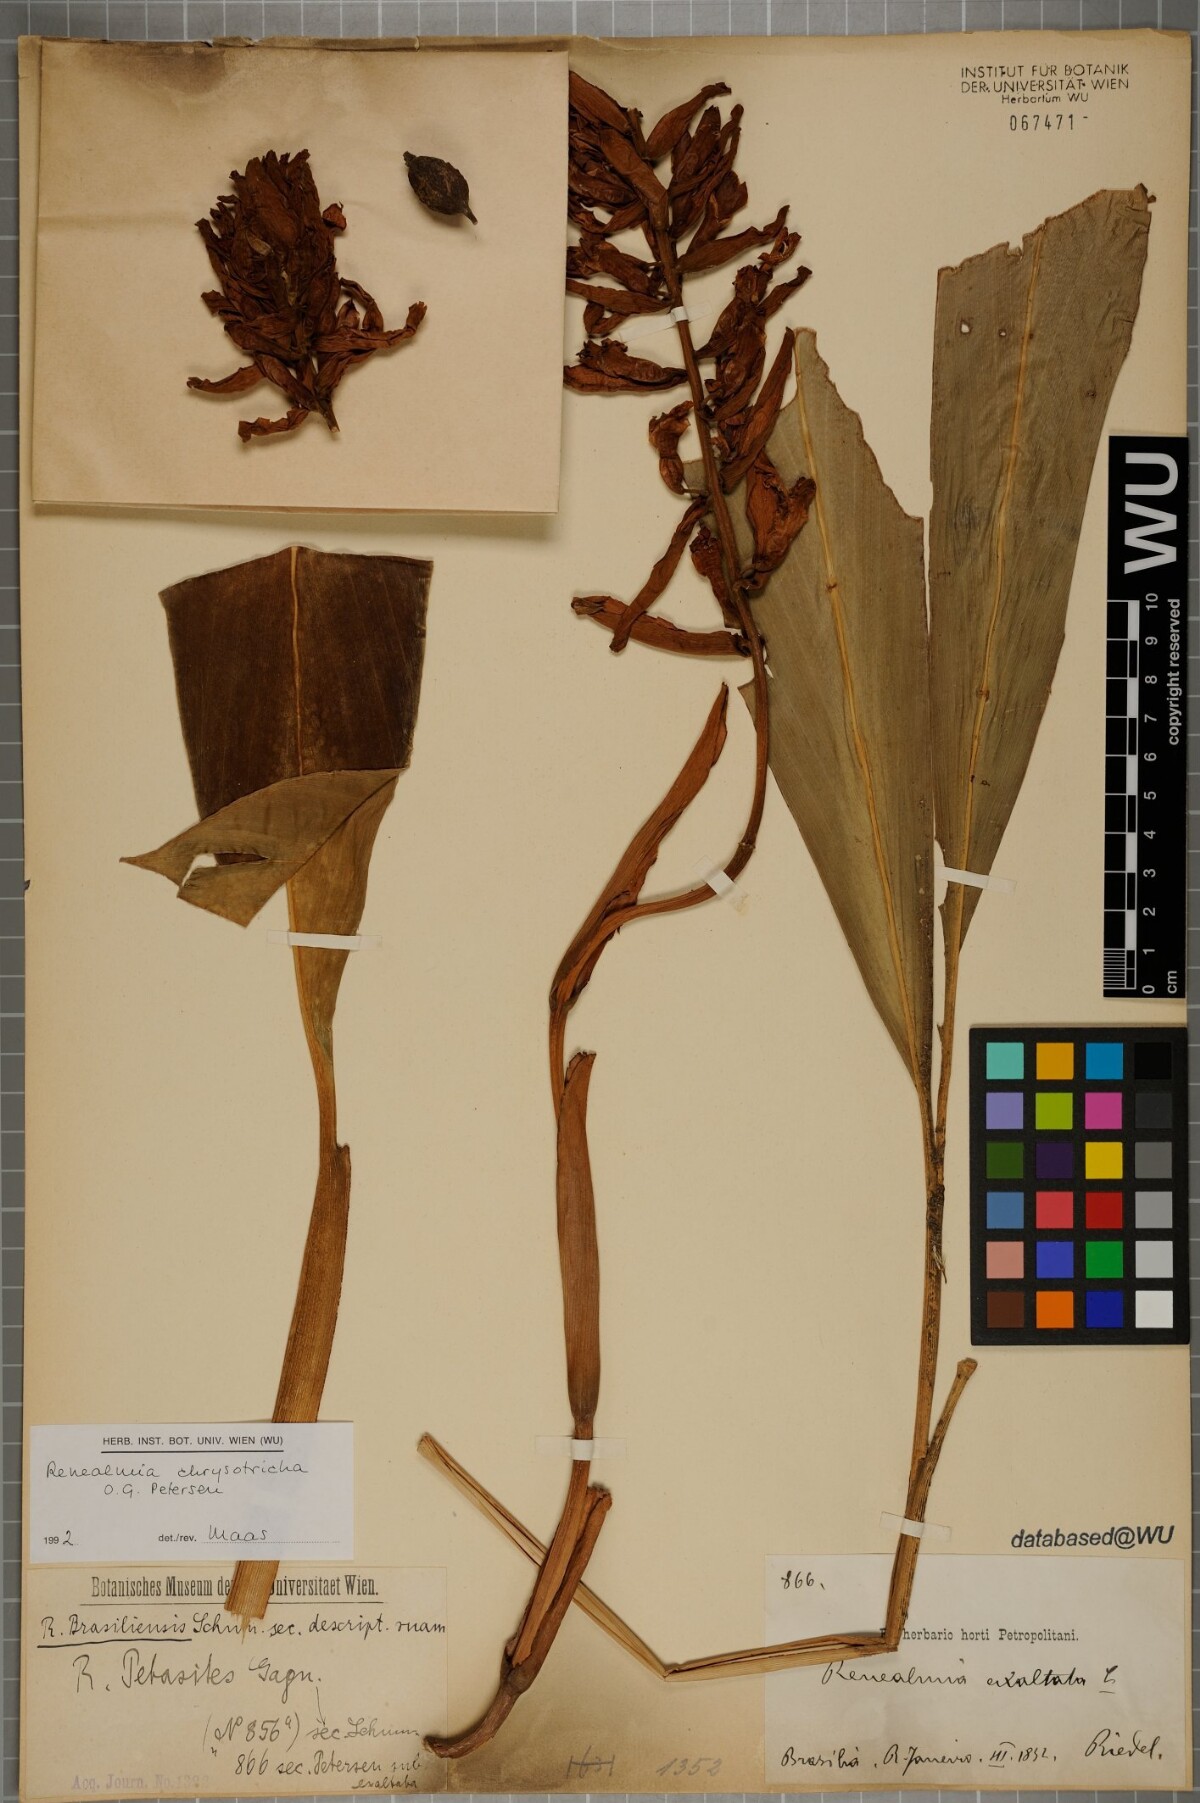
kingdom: Plantae
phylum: Tracheophyta
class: Liliopsida
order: Zingiberales
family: Zingiberaceae
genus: Renealmia
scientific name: Renealmia chrysotricha
